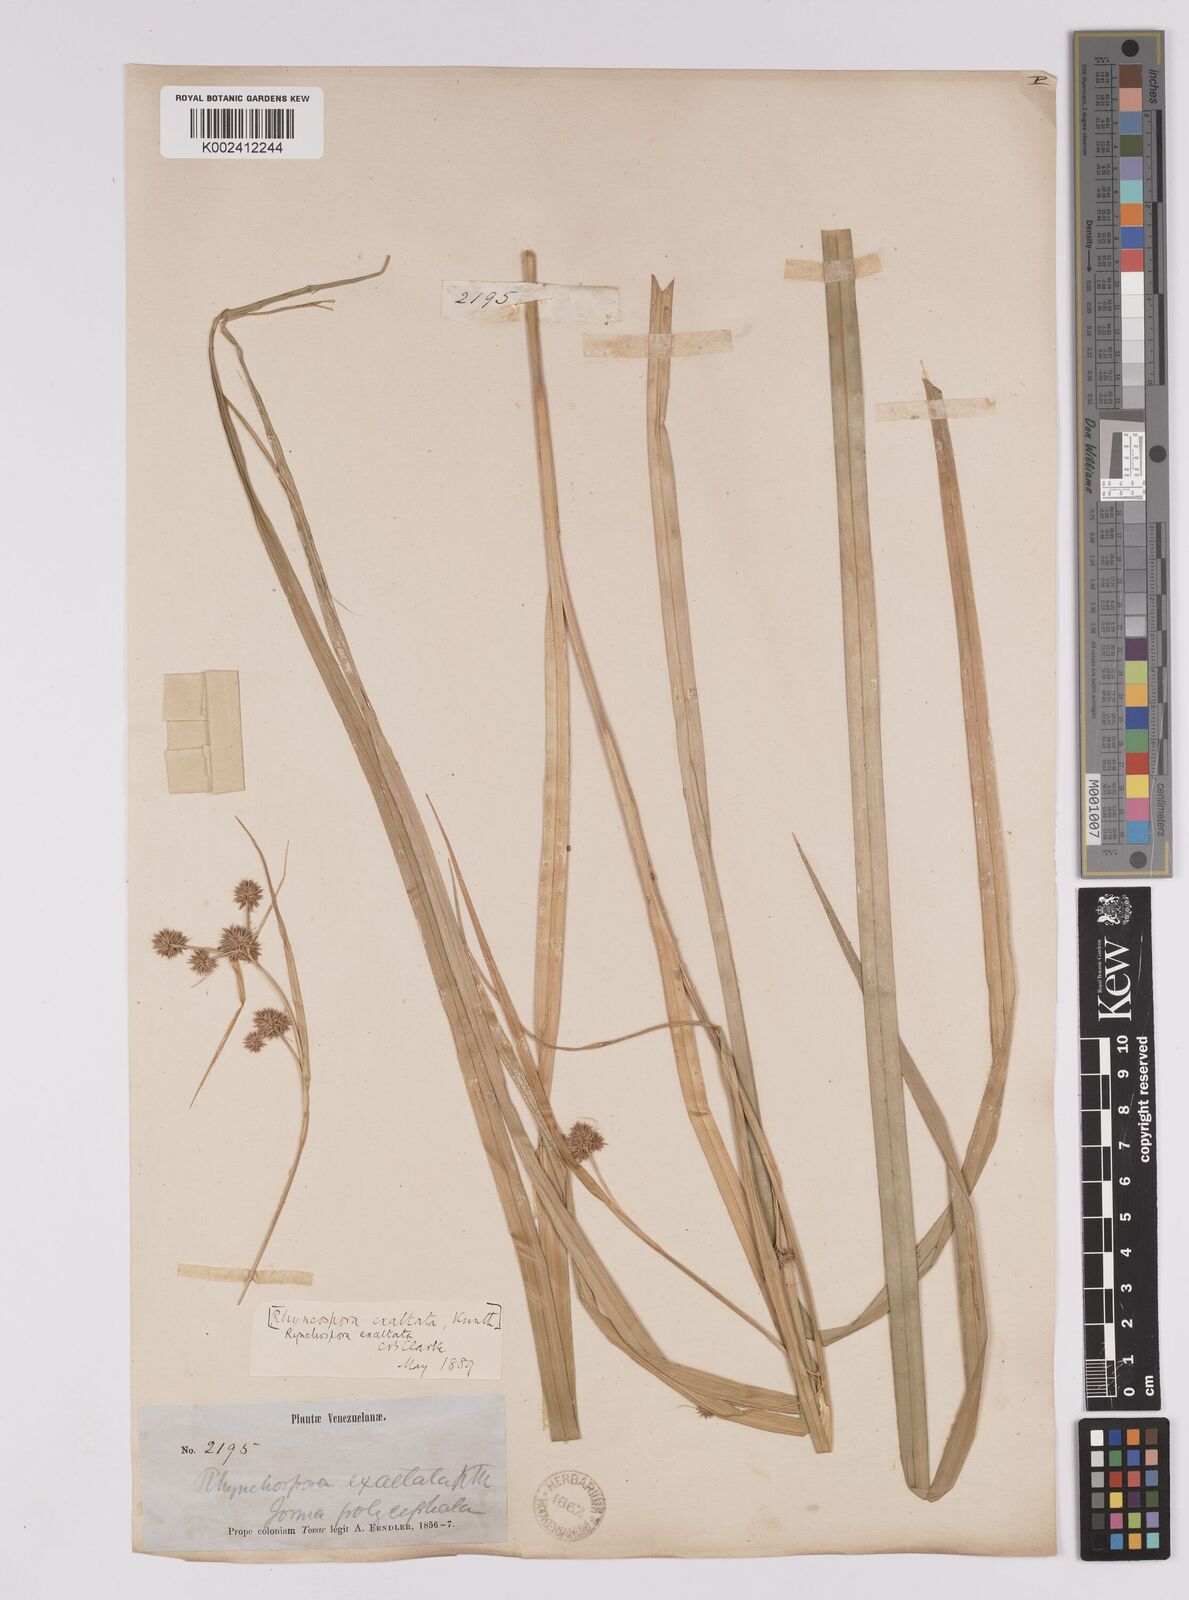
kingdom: Plantae
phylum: Tracheophyta
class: Liliopsida
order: Poales
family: Cyperaceae
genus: Rhynchospora
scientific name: Rhynchospora exaltata
